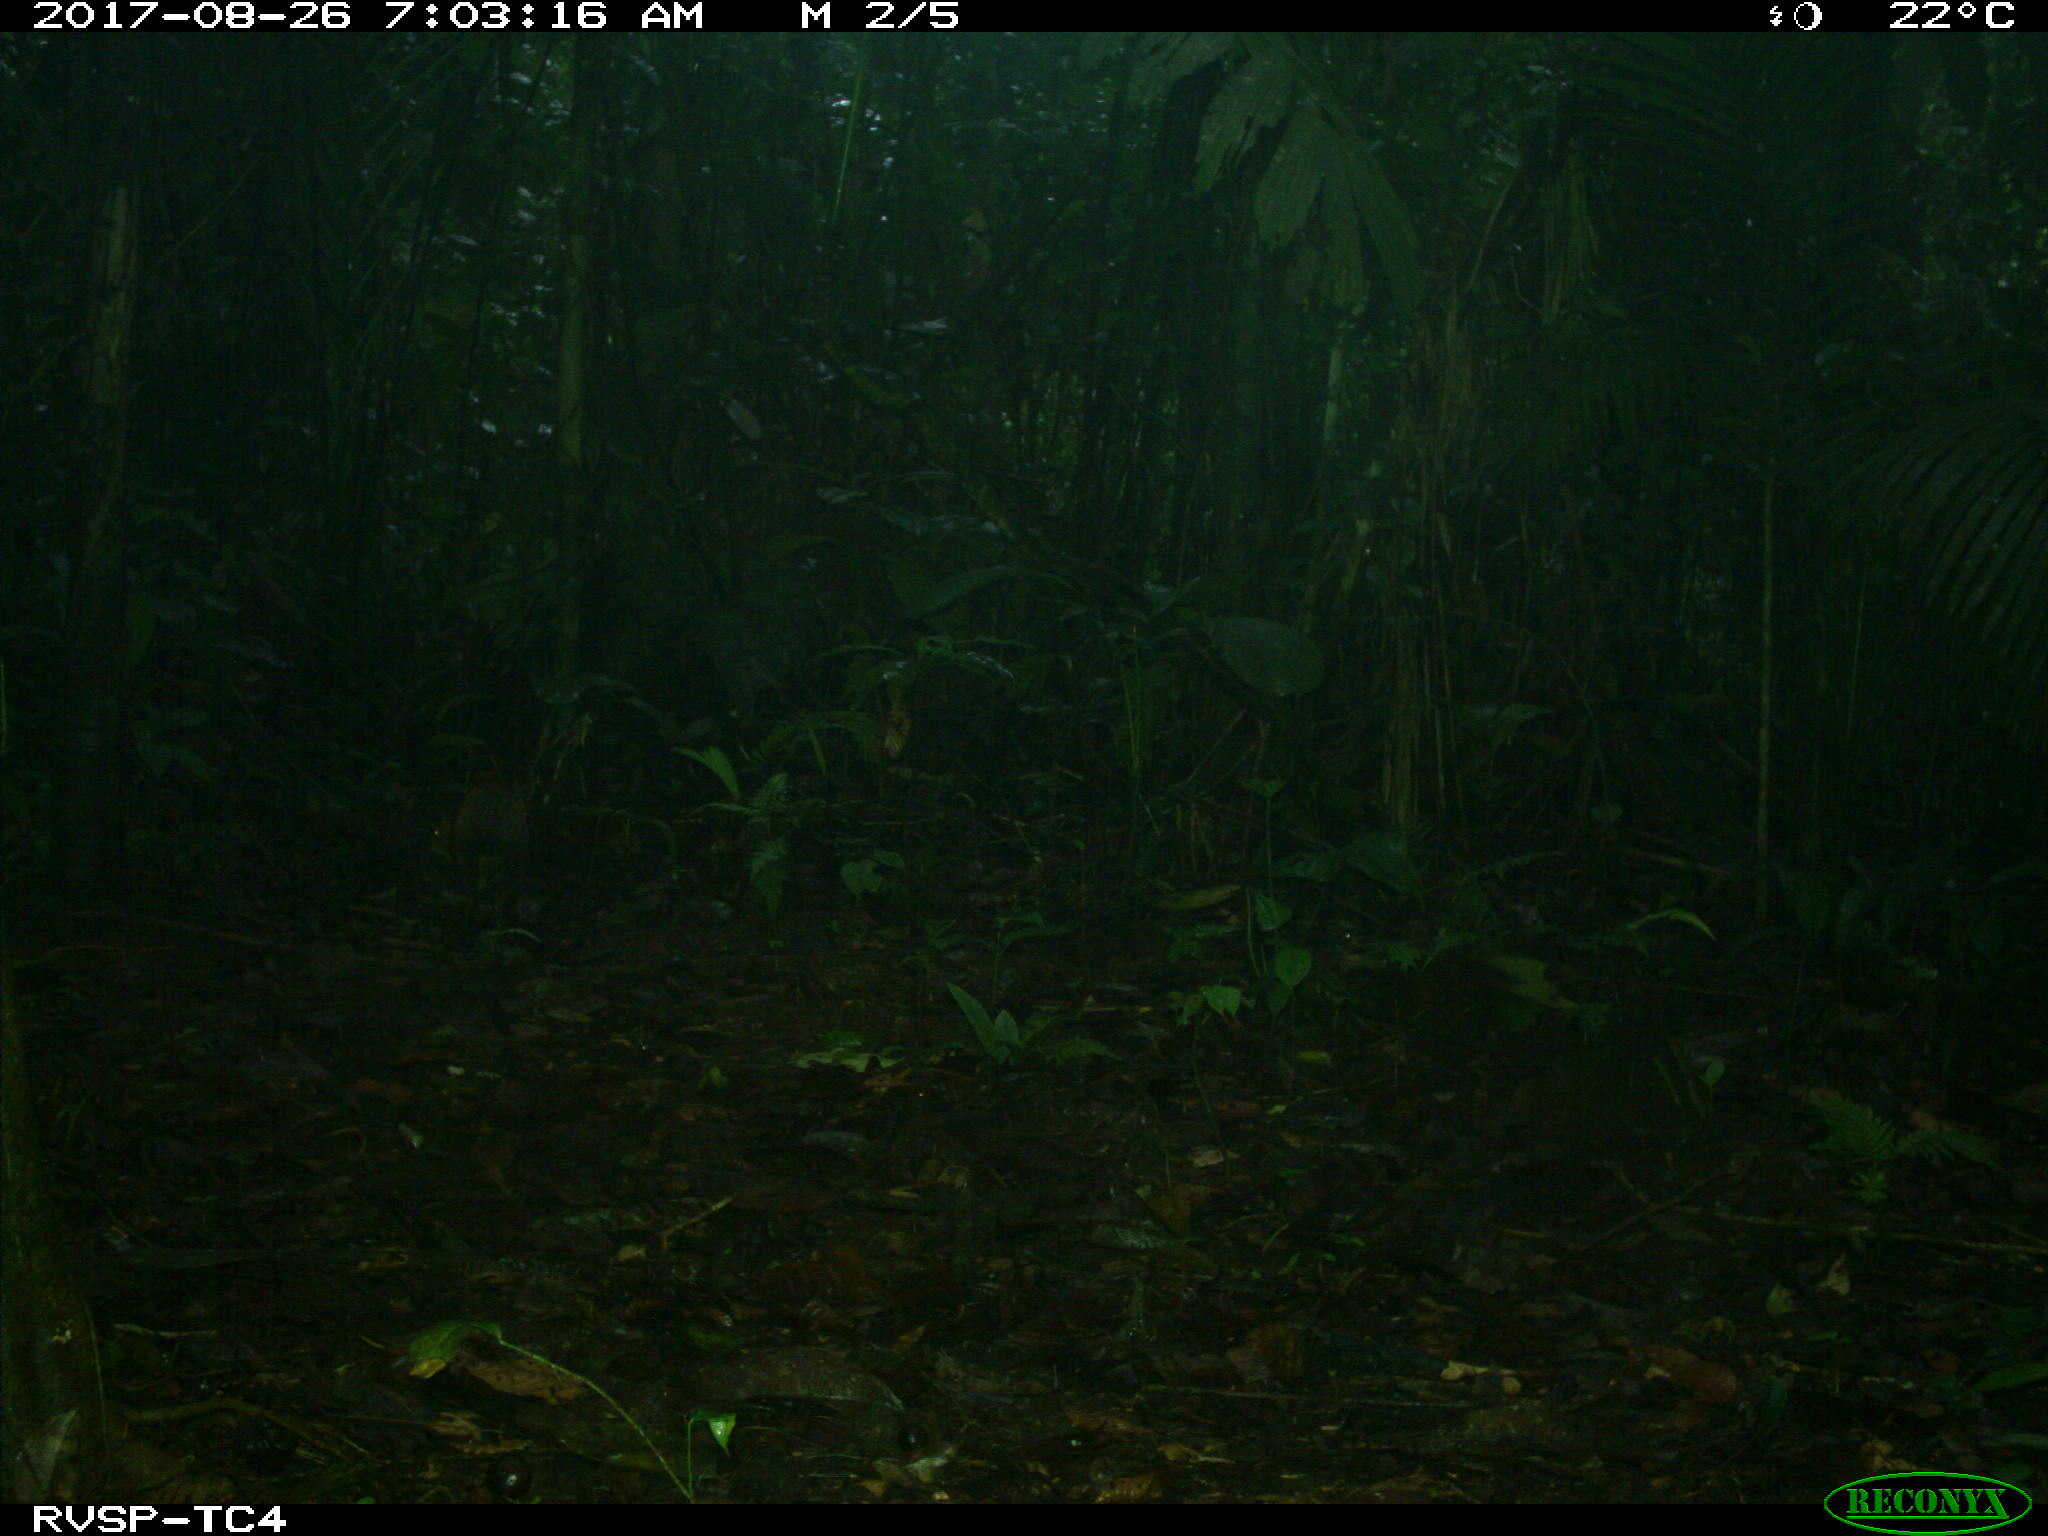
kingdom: Animalia
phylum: Chordata
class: Mammalia
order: Rodentia
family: Dasyproctidae
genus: Dasyprocta
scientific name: Dasyprocta punctata
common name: Central american agouti
